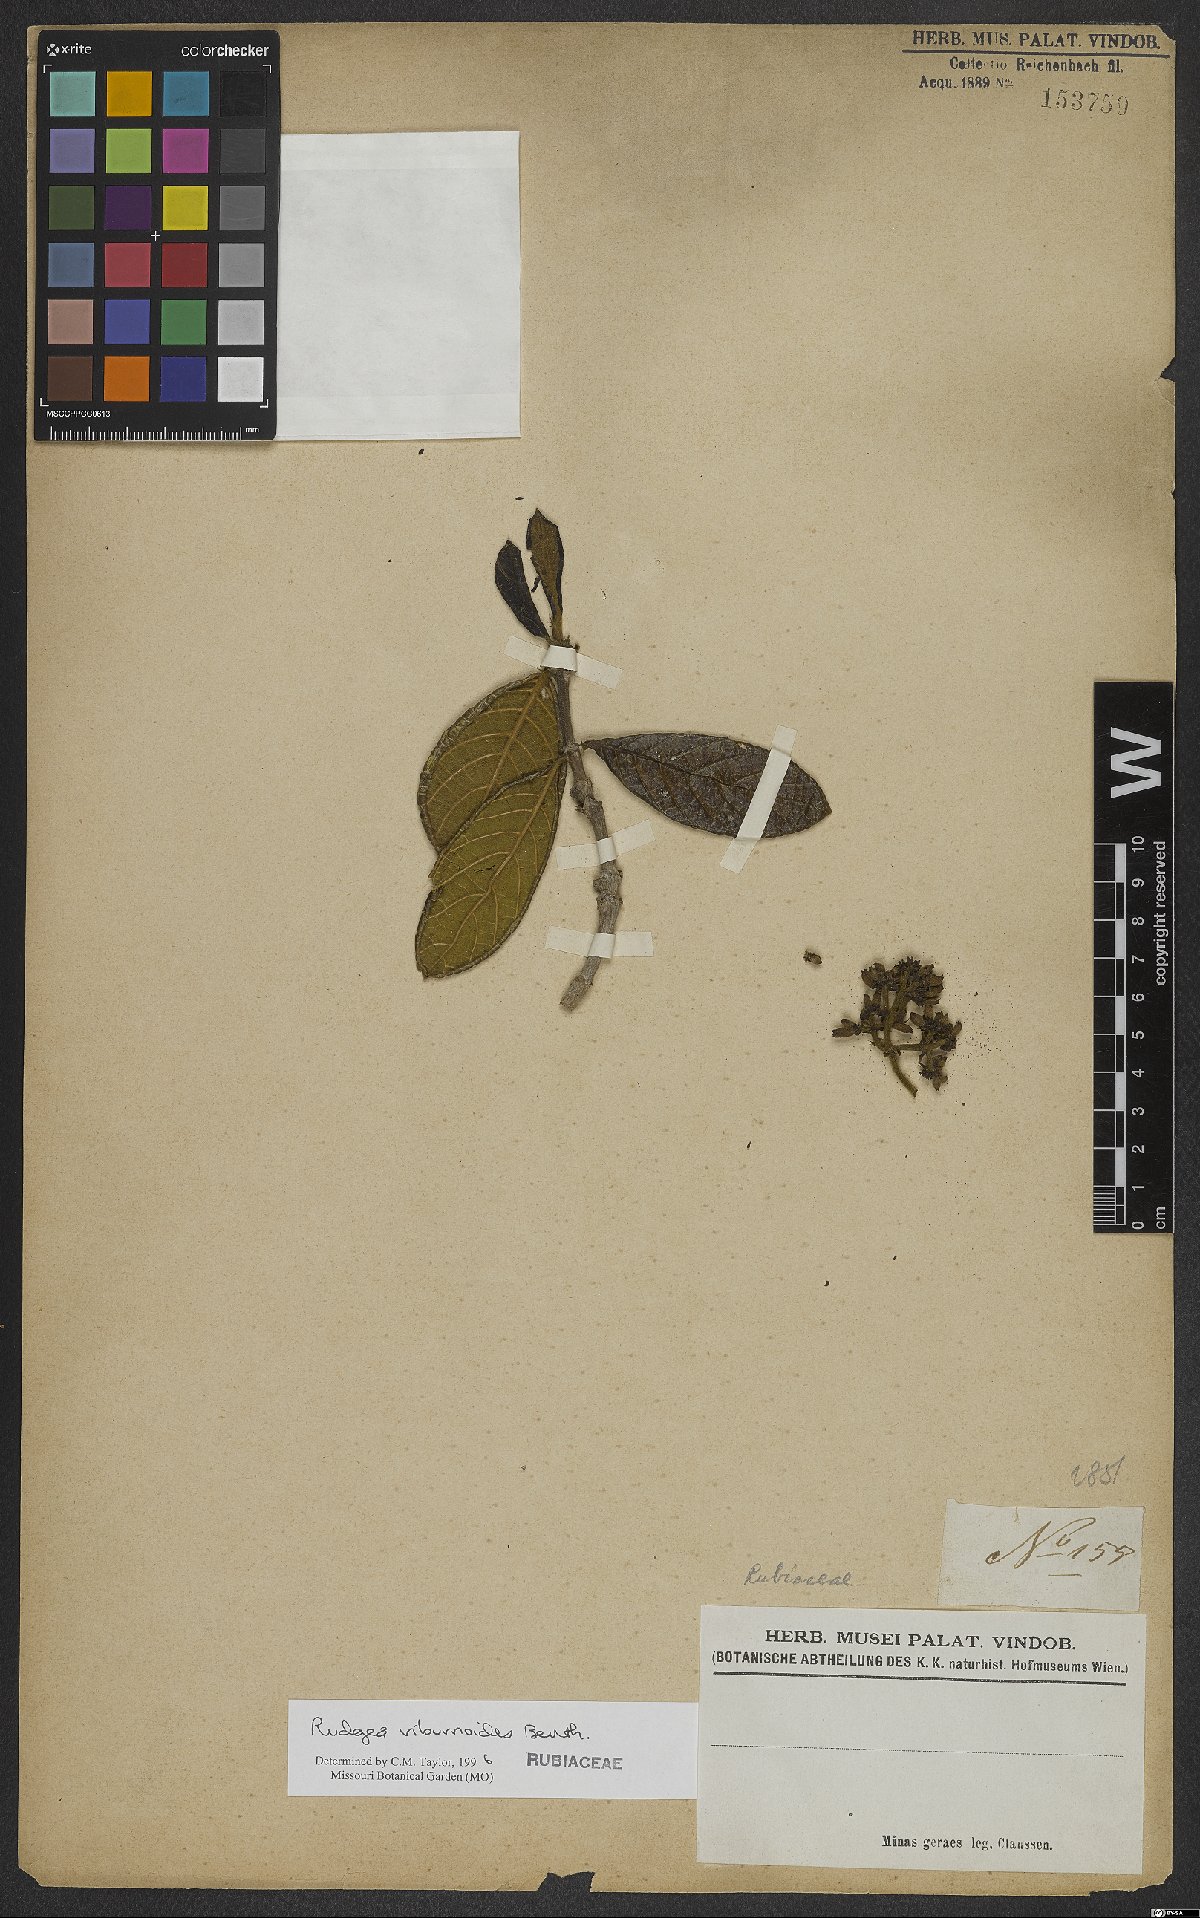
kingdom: Plantae
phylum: Tracheophyta
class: Magnoliopsida
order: Gentianales
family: Rubiaceae
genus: Rudgea
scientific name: Rudgea viburnoides
